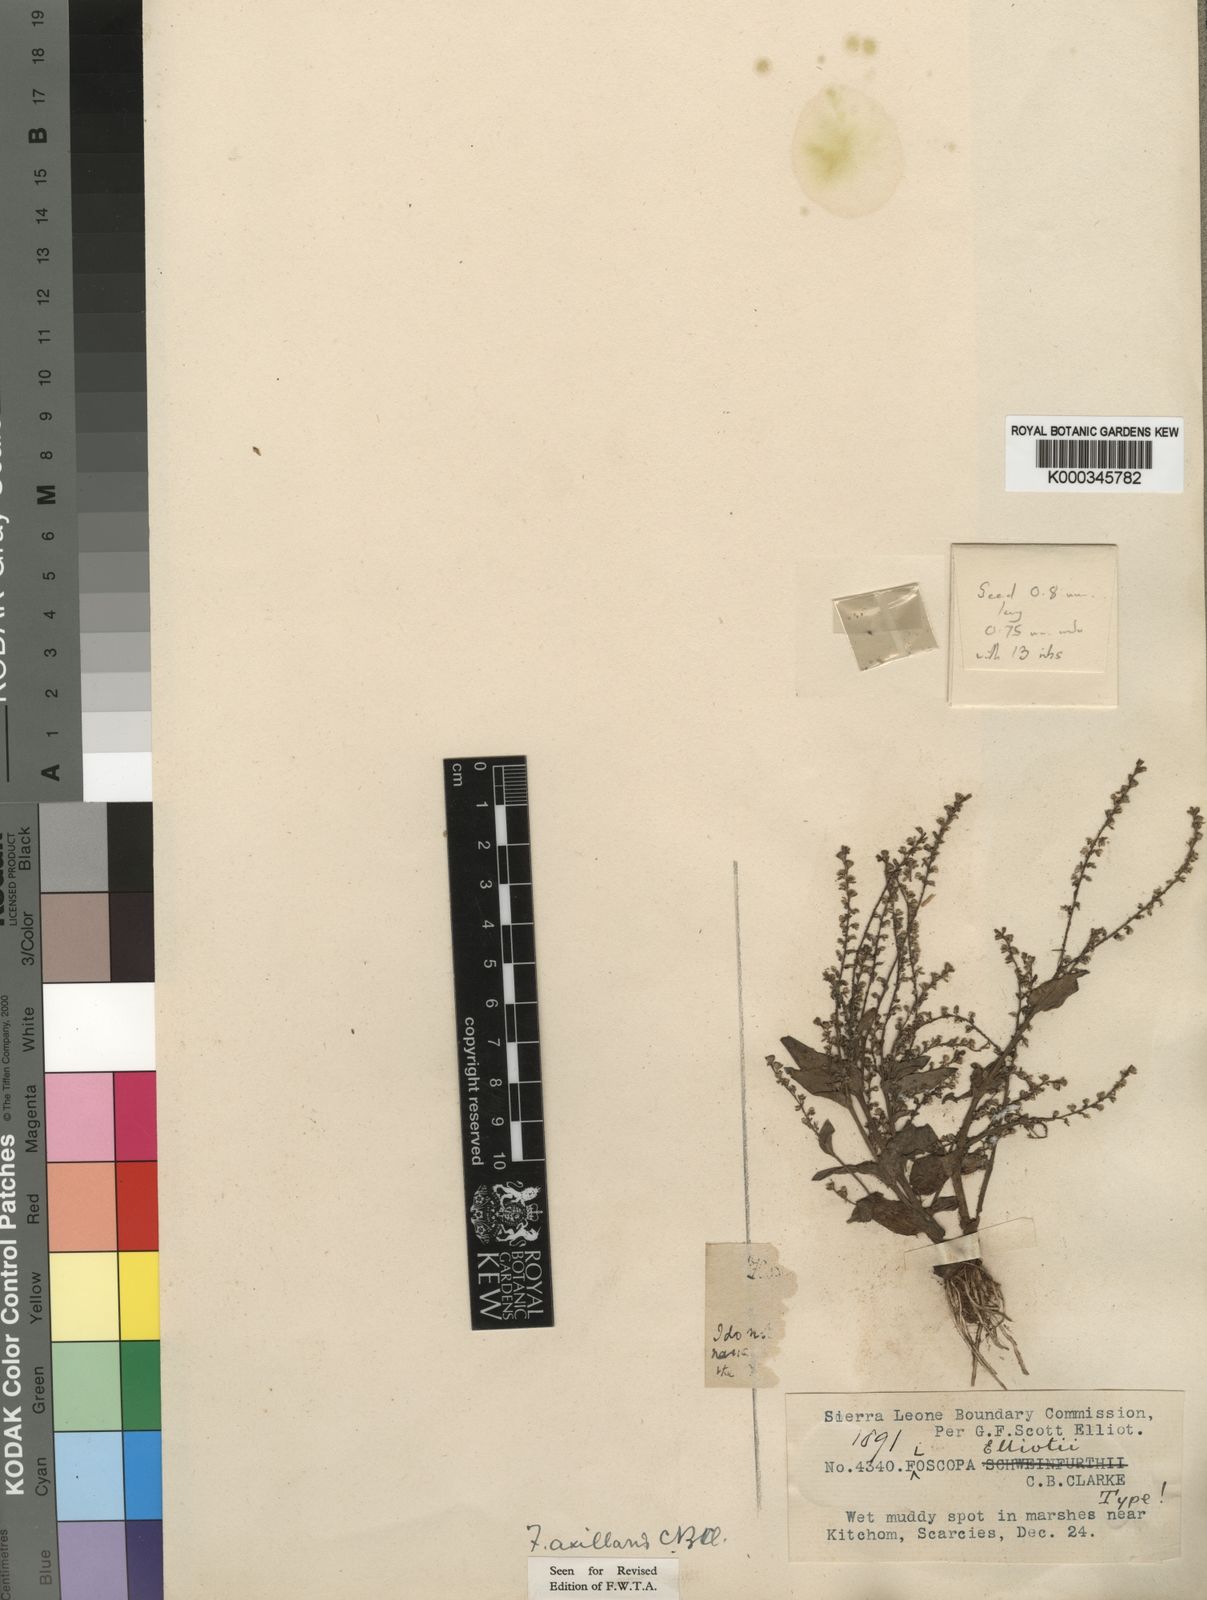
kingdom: Plantae
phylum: Tracheophyta
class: Liliopsida
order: Commelinales
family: Commelinaceae
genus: Floscopa
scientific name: Floscopa axillaris
